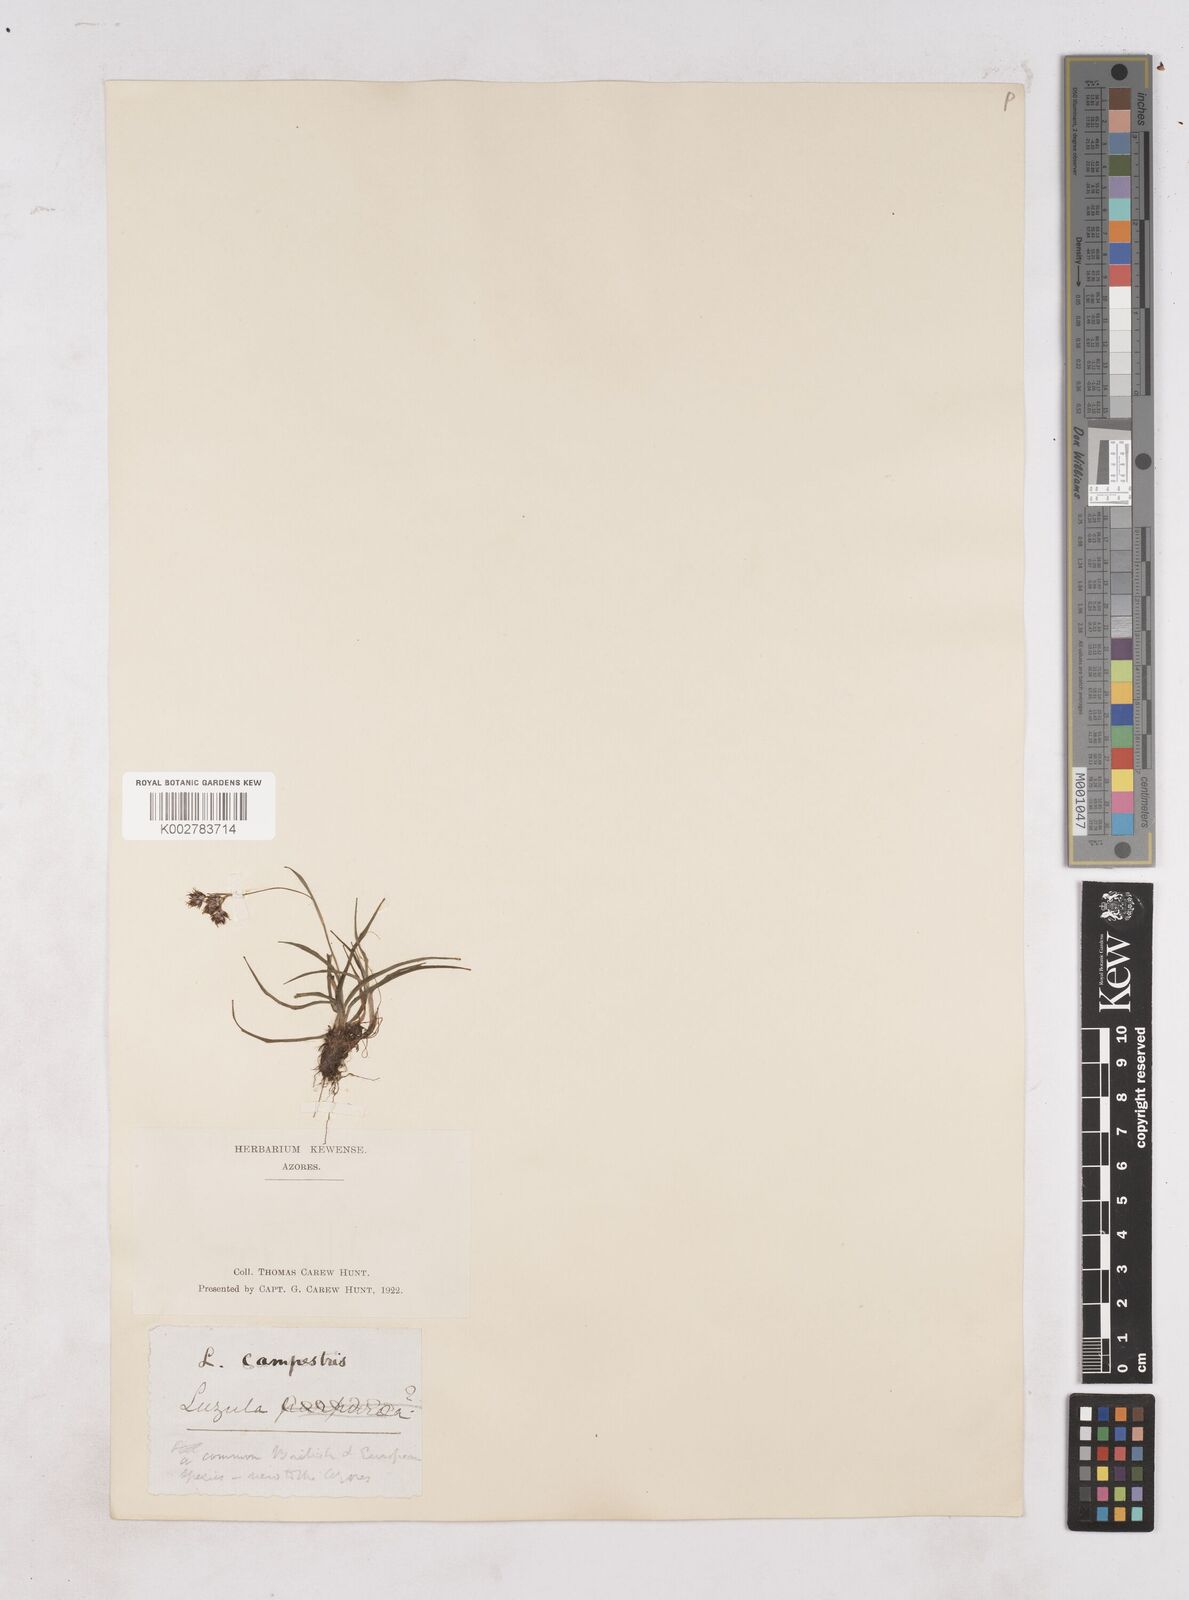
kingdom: Plantae
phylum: Tracheophyta
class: Liliopsida
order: Poales
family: Juncaceae
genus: Luzula
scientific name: Luzula campestris
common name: Field wood-rush
